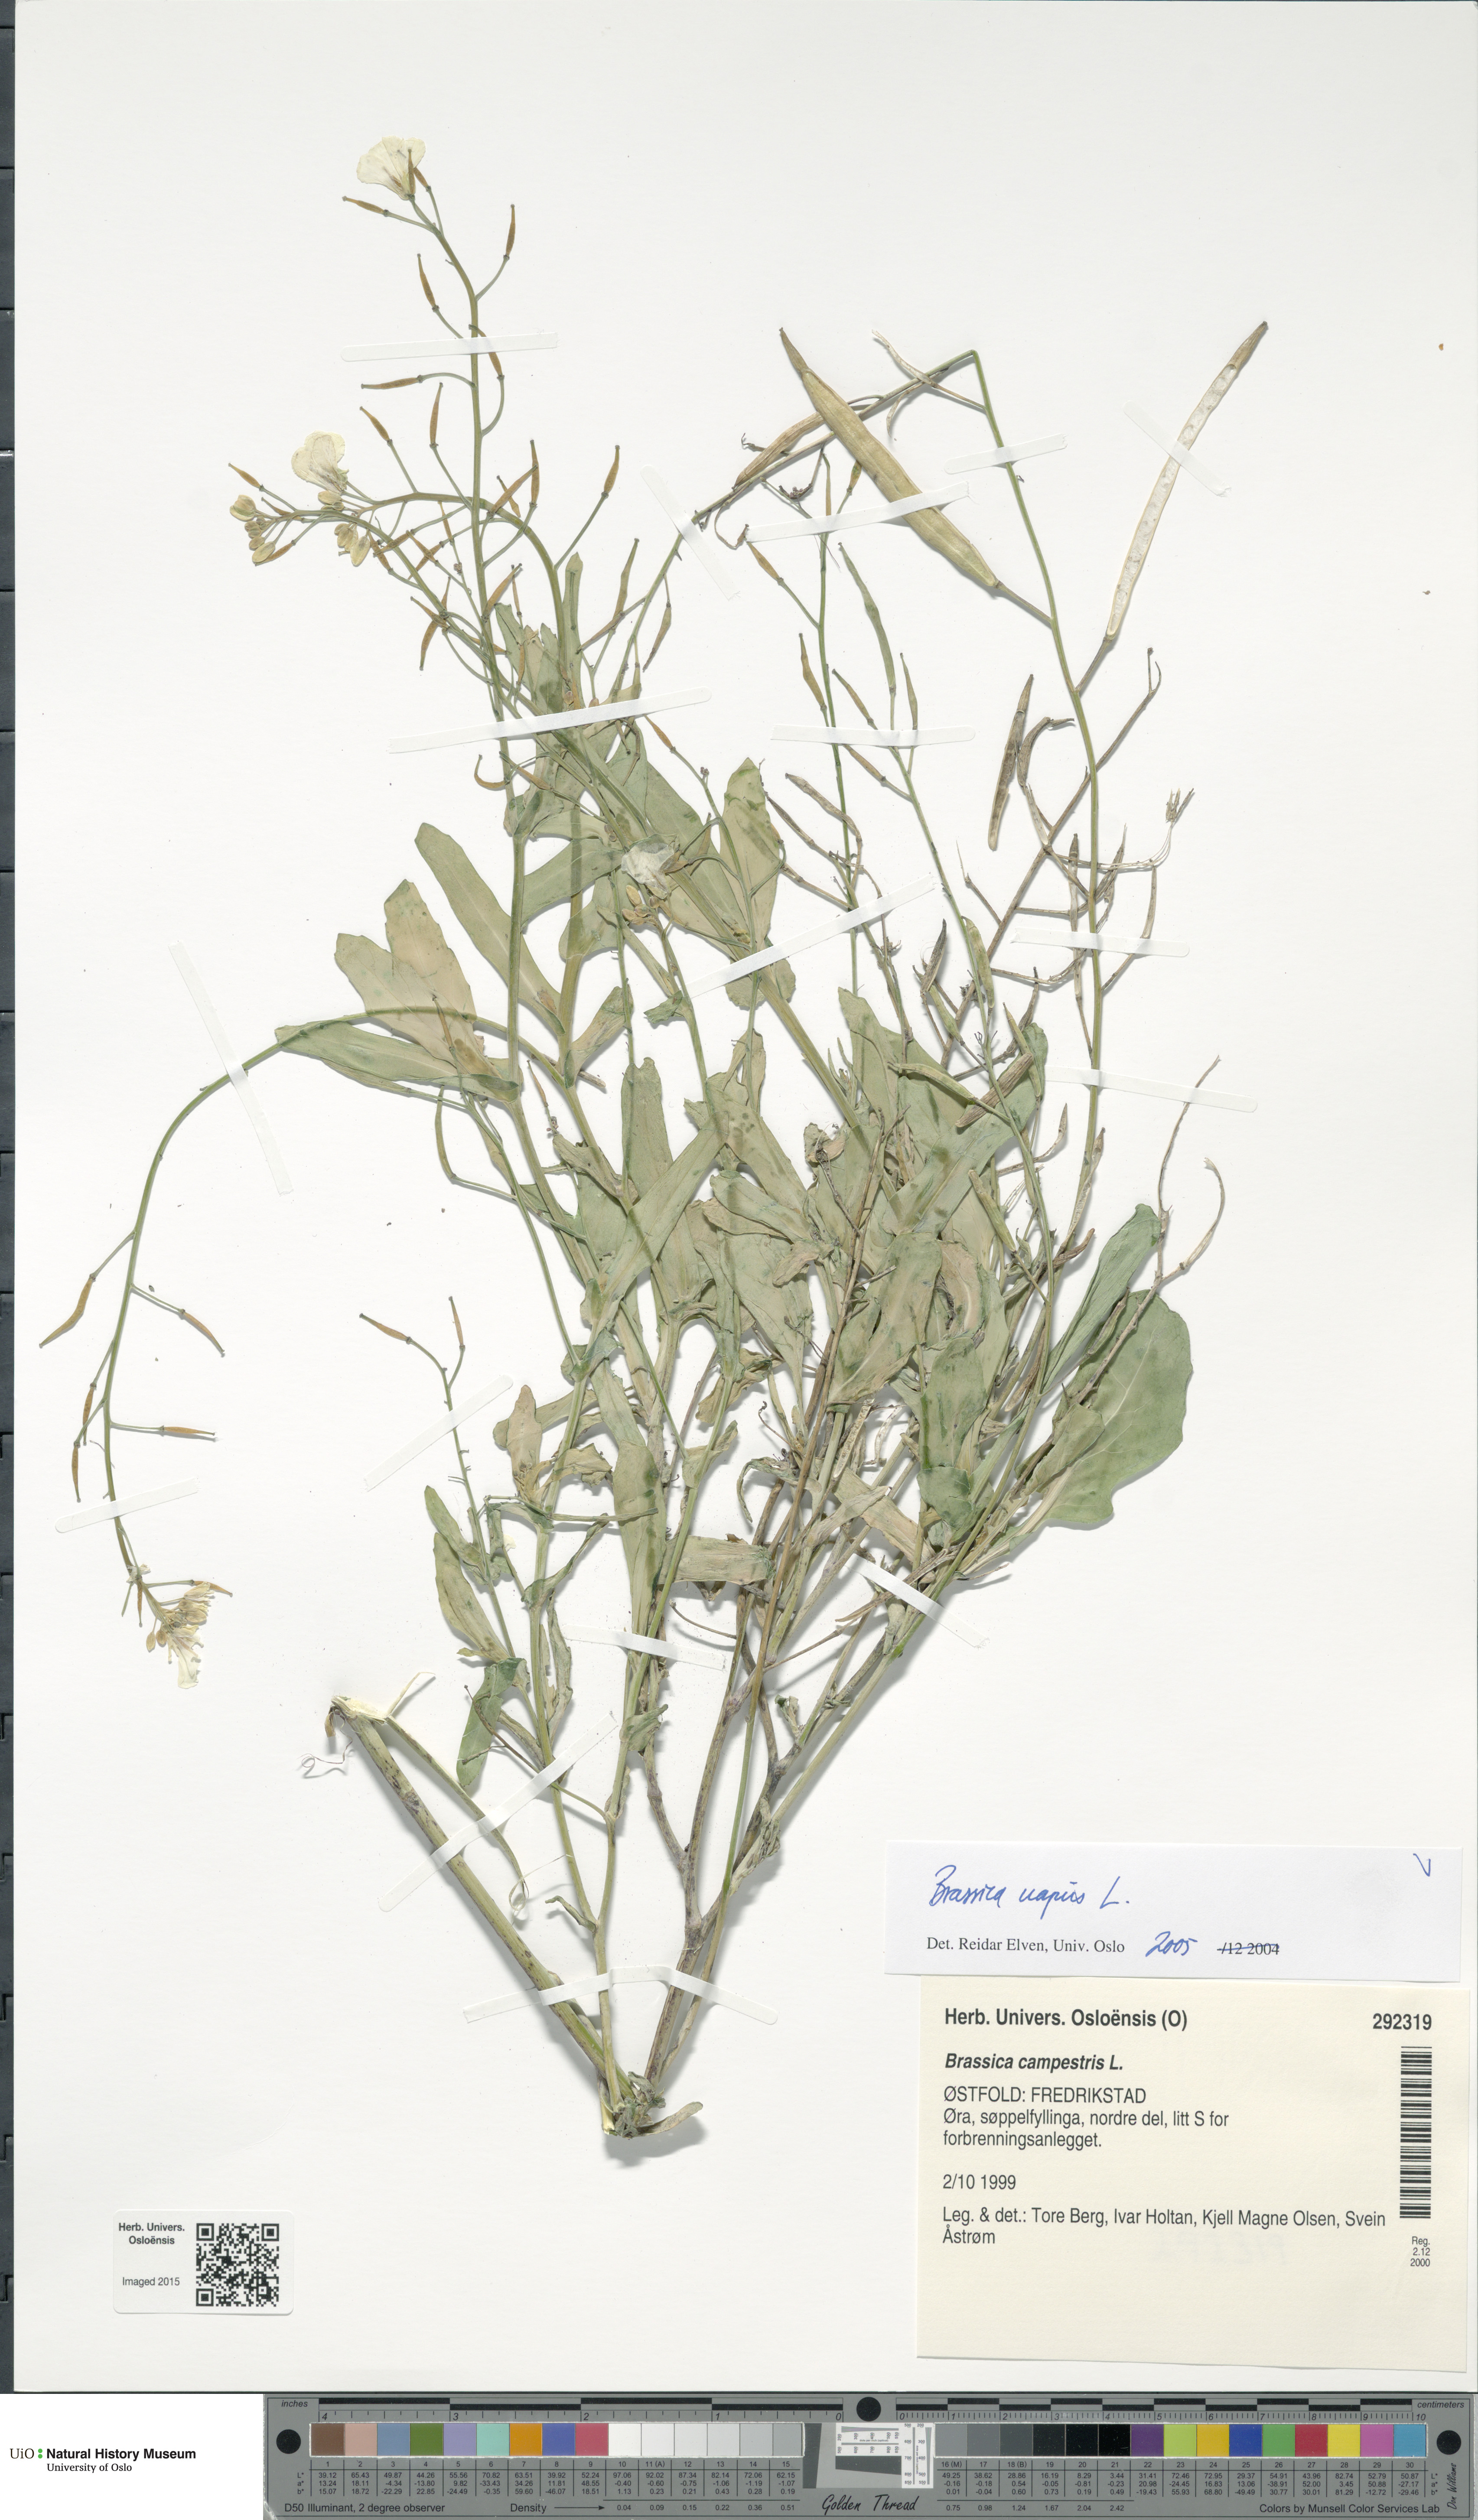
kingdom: Plantae
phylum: Tracheophyta
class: Magnoliopsida
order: Brassicales
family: Brassicaceae
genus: Brassica
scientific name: Brassica napus
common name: Rape
